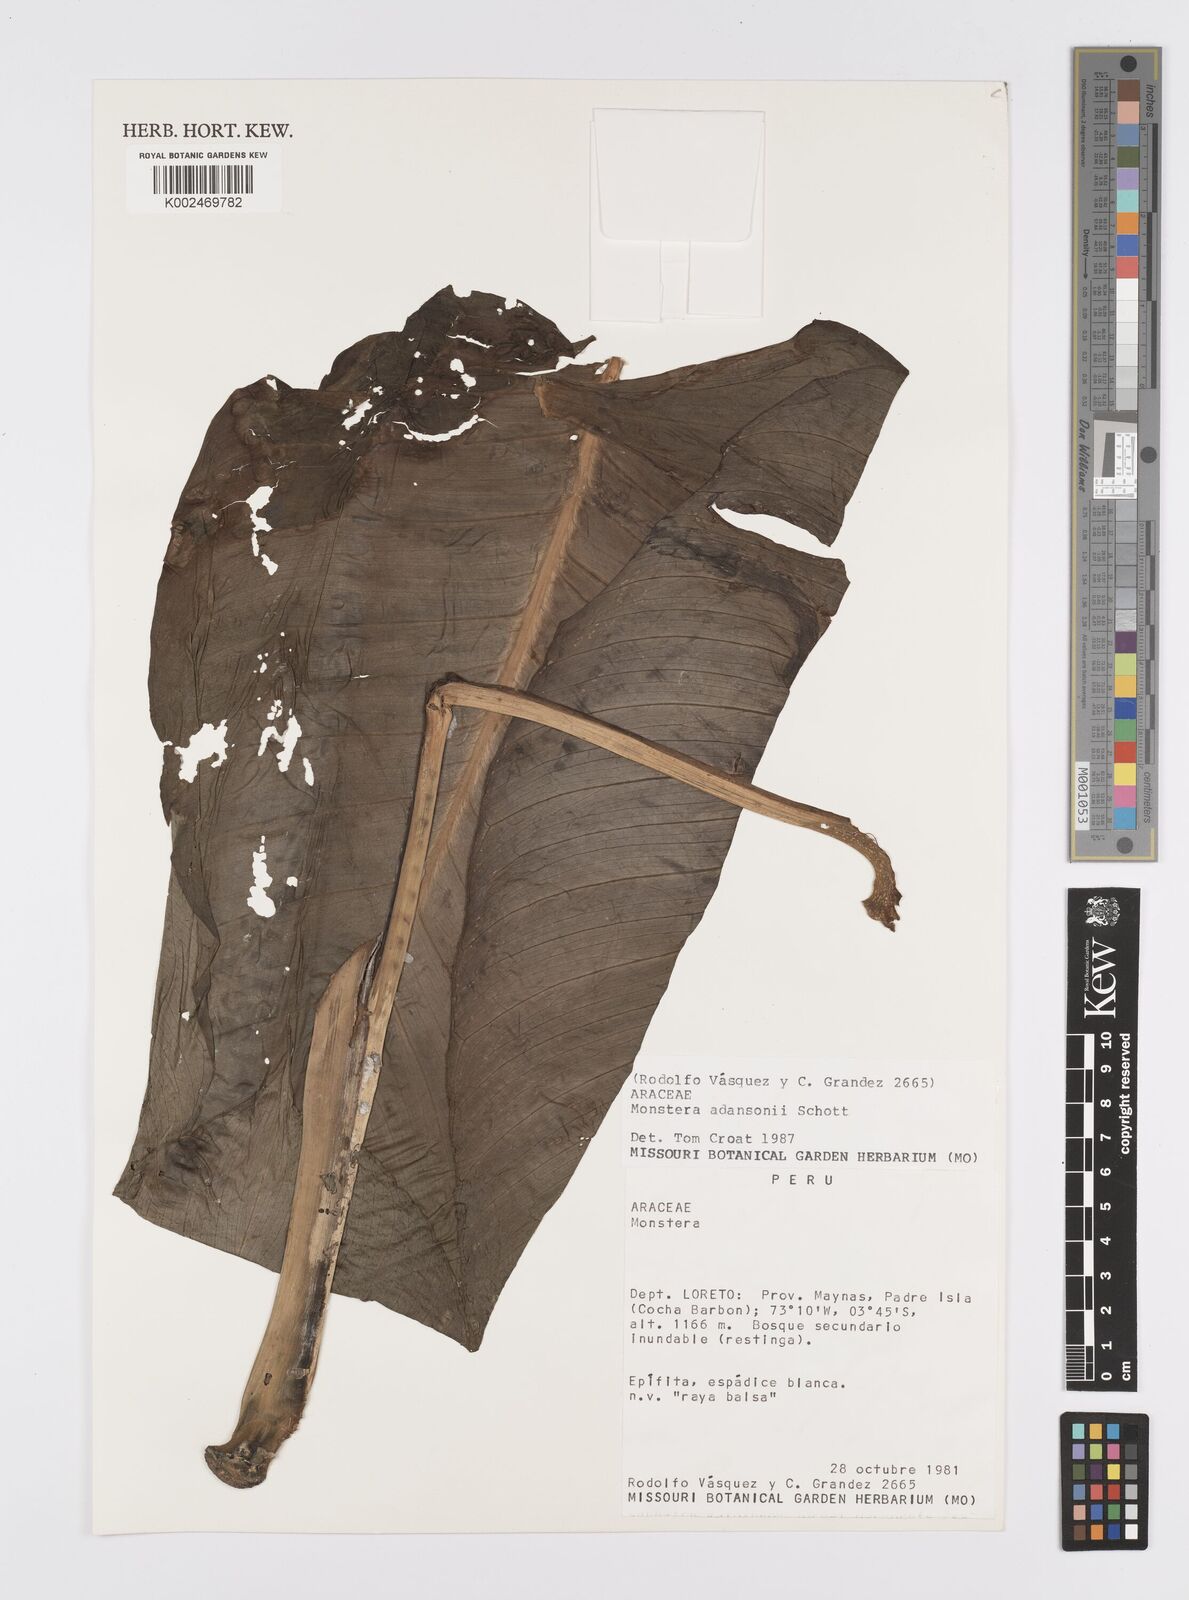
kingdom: Plantae
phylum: Tracheophyta
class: Liliopsida
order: Alismatales
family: Araceae
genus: Monstera
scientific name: Monstera adansonii
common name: Tarovine
